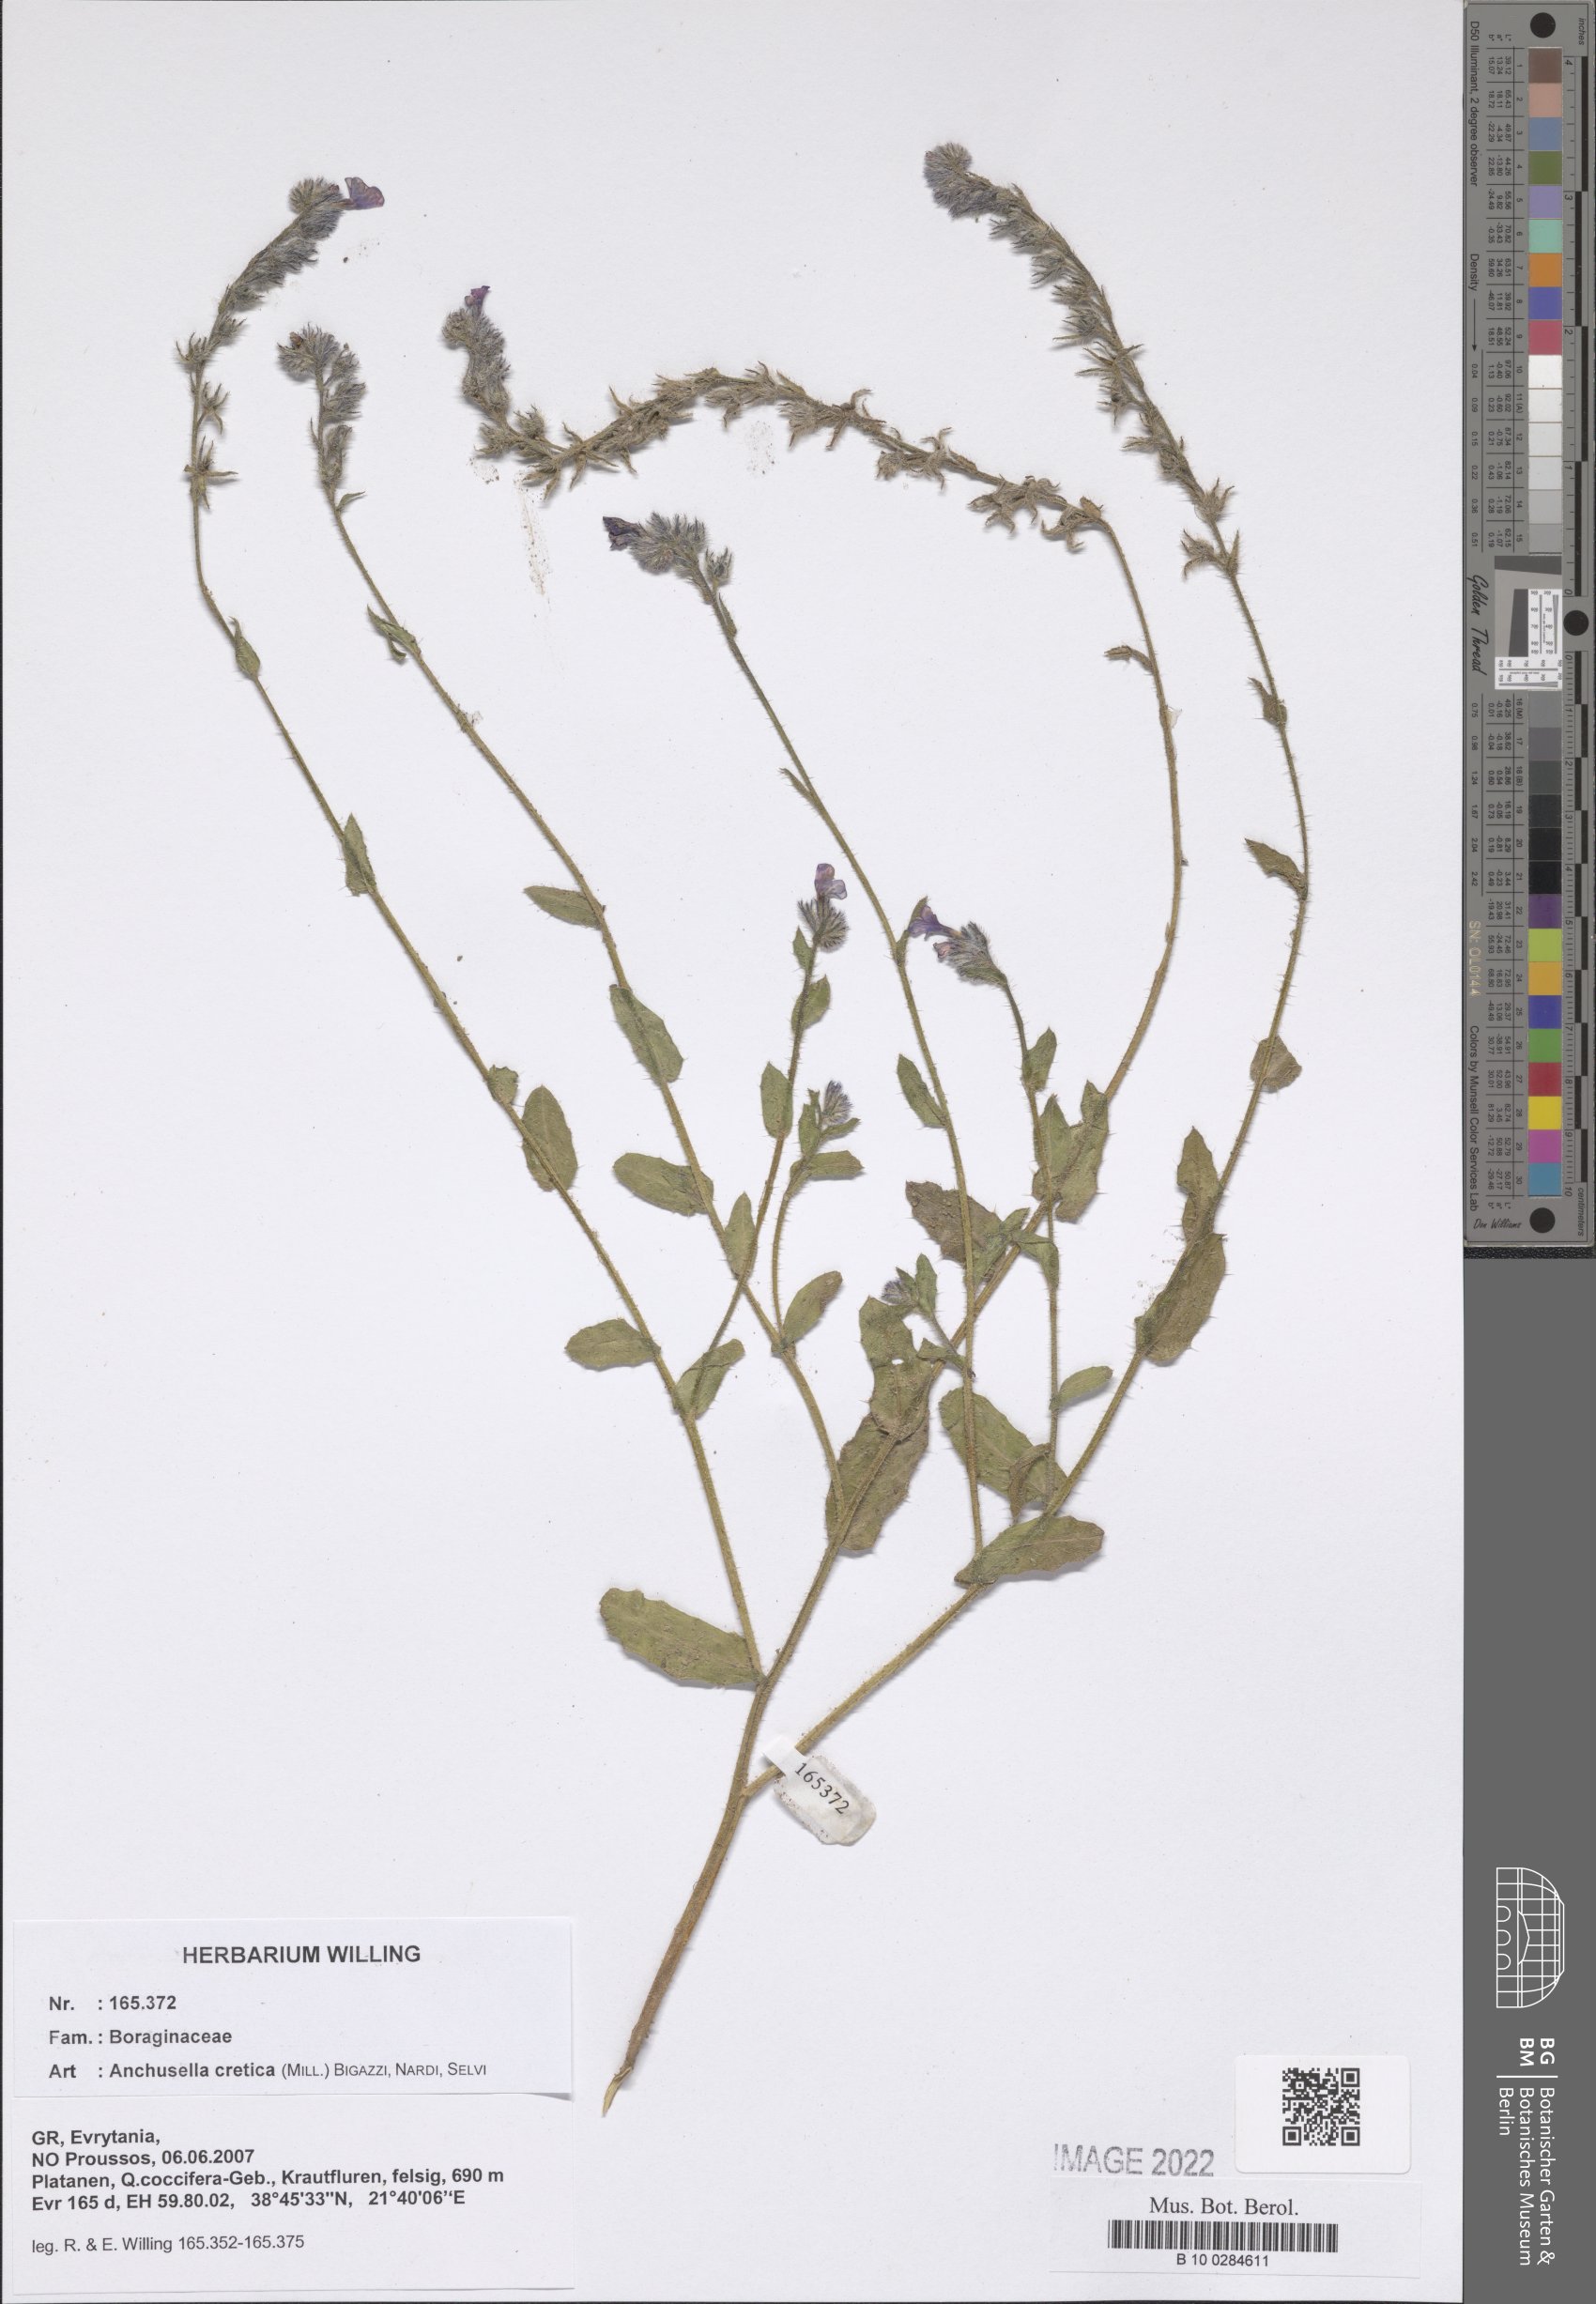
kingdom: Plantae
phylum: Tracheophyta
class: Magnoliopsida
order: Boraginales
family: Boraginaceae
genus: Lycopsis
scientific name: Lycopsis arvensis
